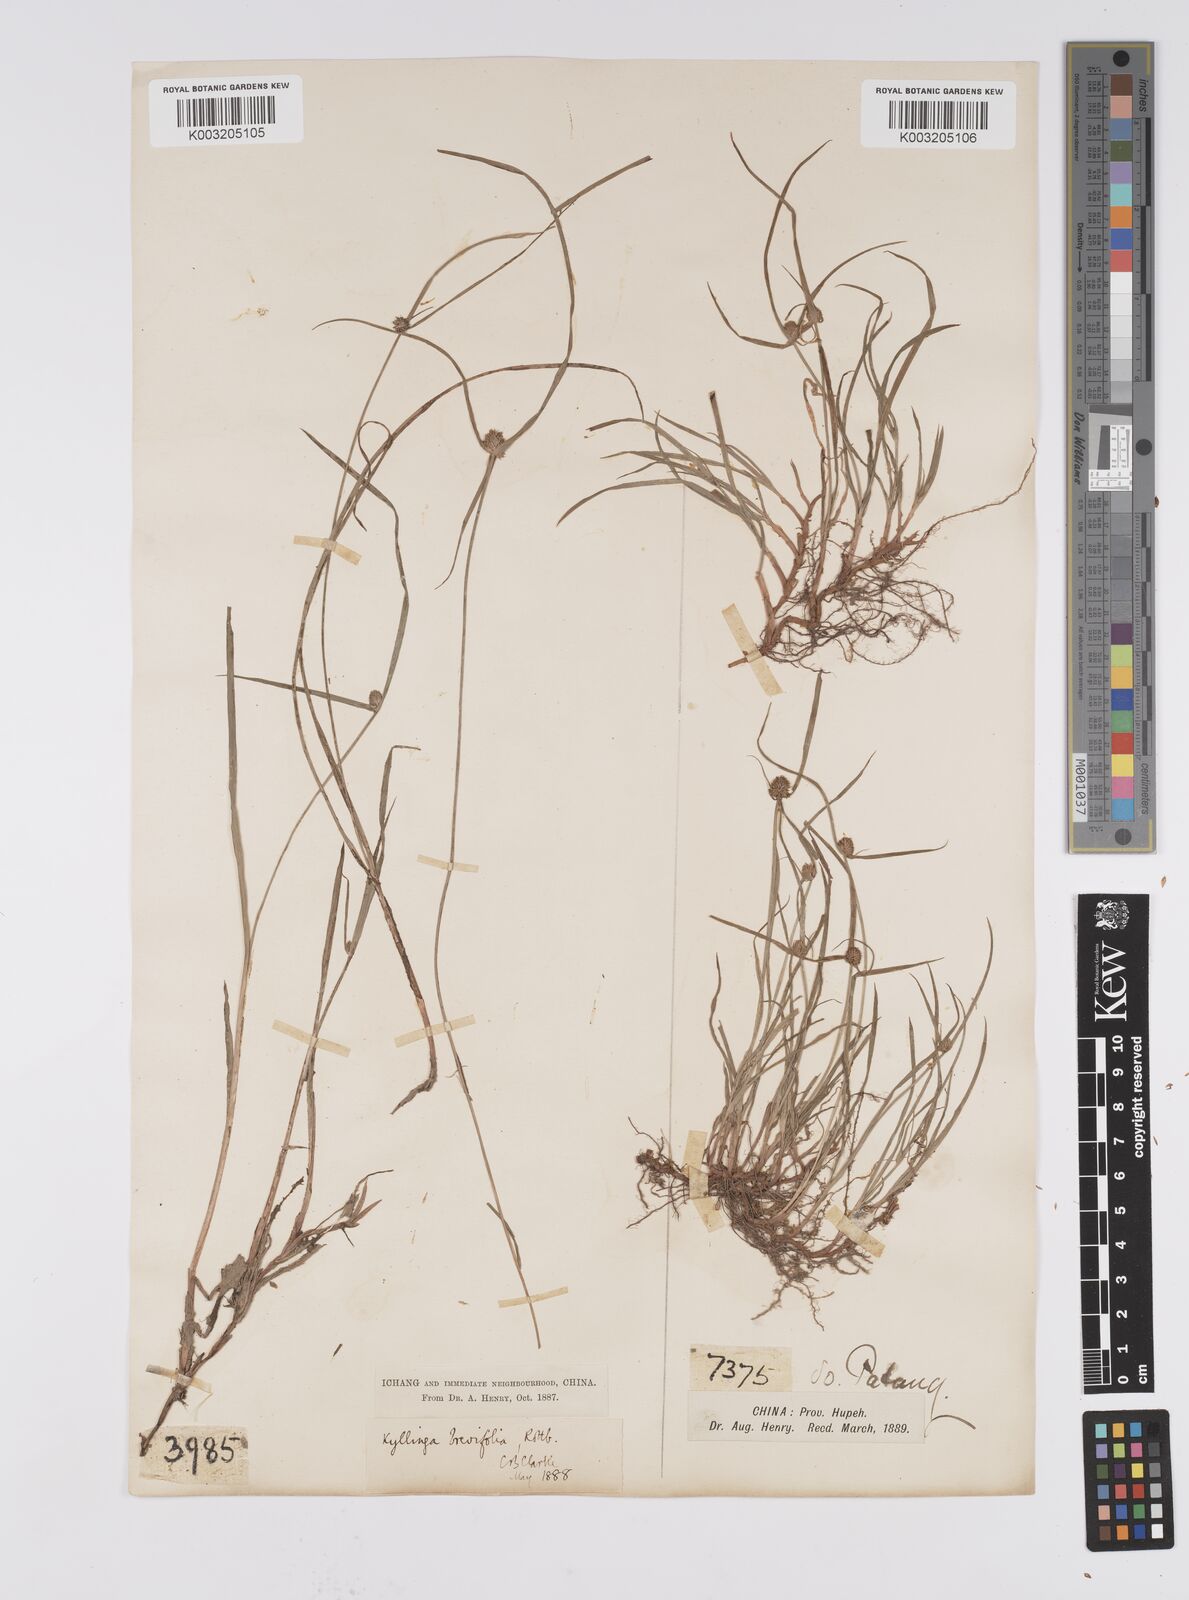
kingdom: Plantae
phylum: Tracheophyta
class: Liliopsida
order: Poales
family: Cyperaceae
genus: Cyperus
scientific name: Cyperus brevifolius
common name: Globe kyllinga
